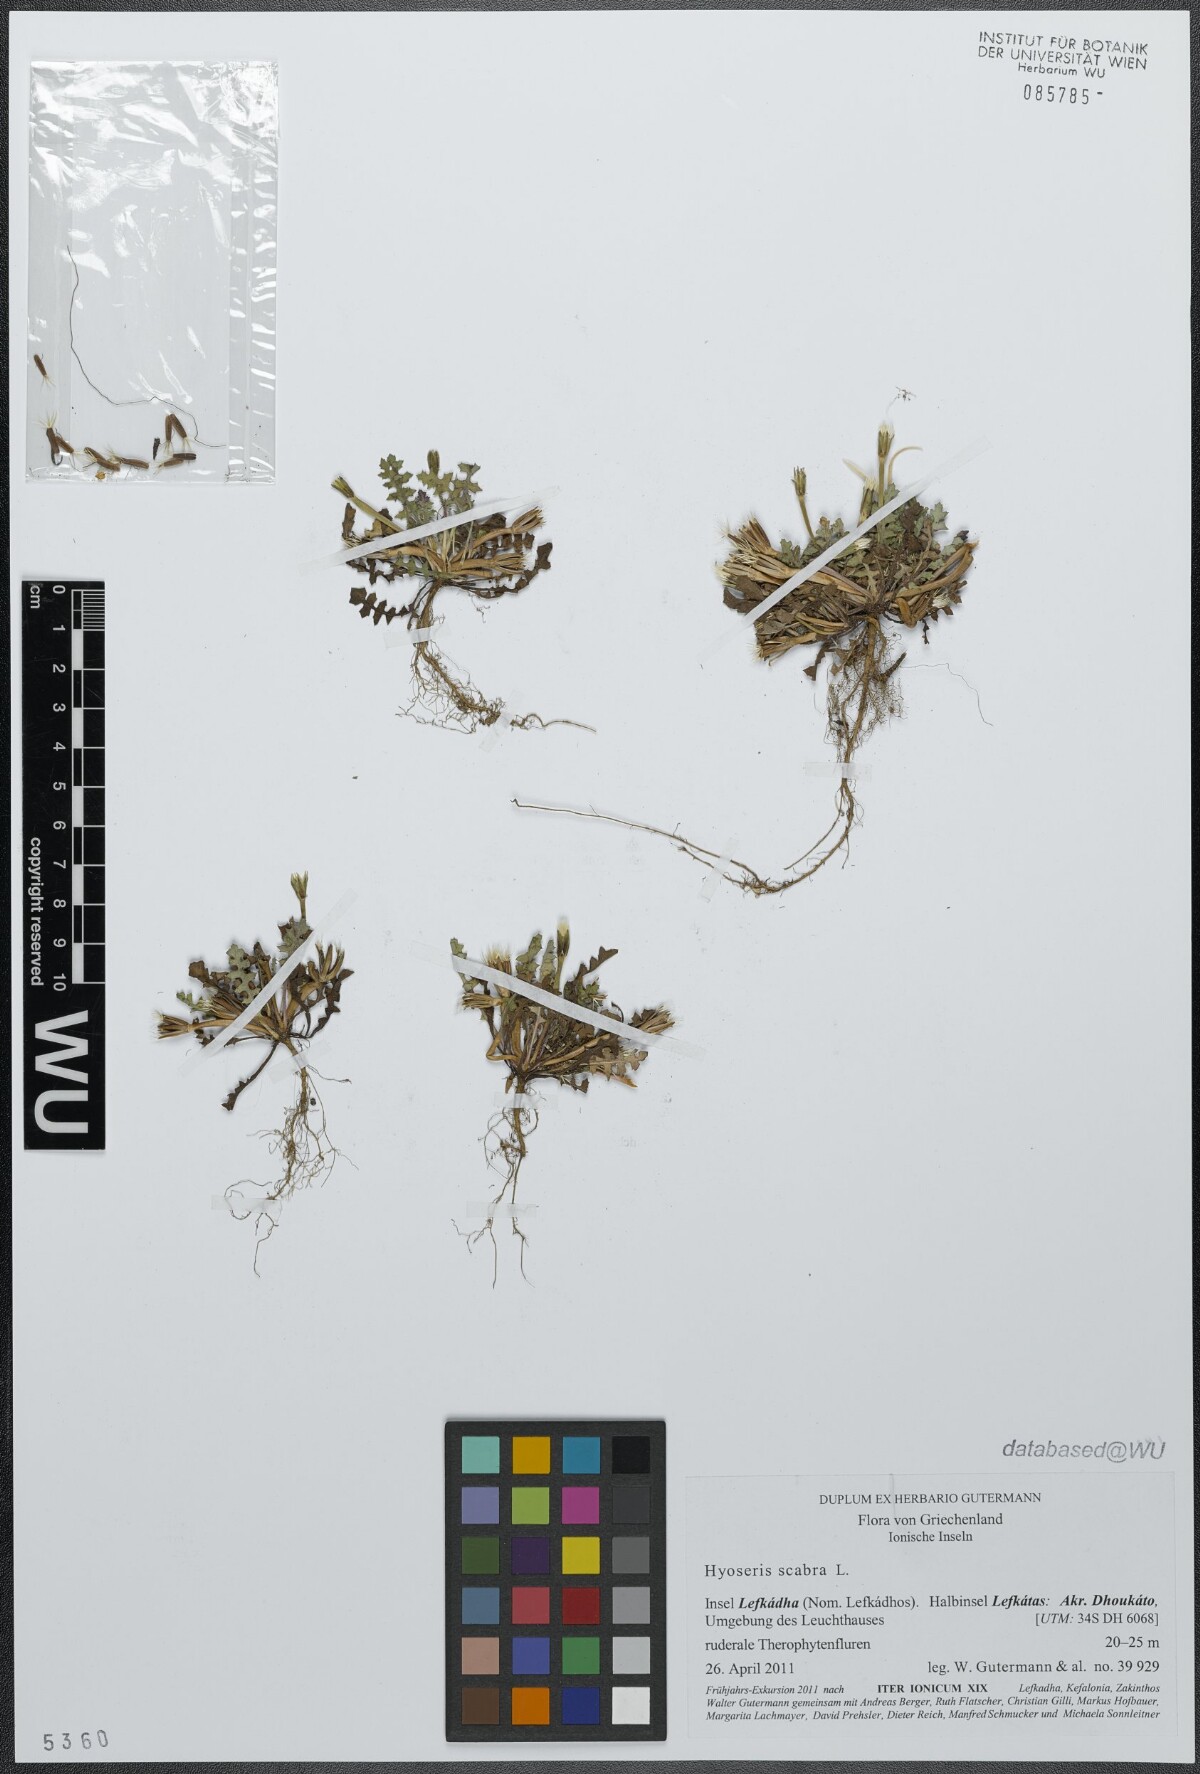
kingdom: Plantae
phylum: Tracheophyta
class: Magnoliopsida
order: Asterales
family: Asteraceae
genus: Hyoseris
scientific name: Hyoseris scabra
